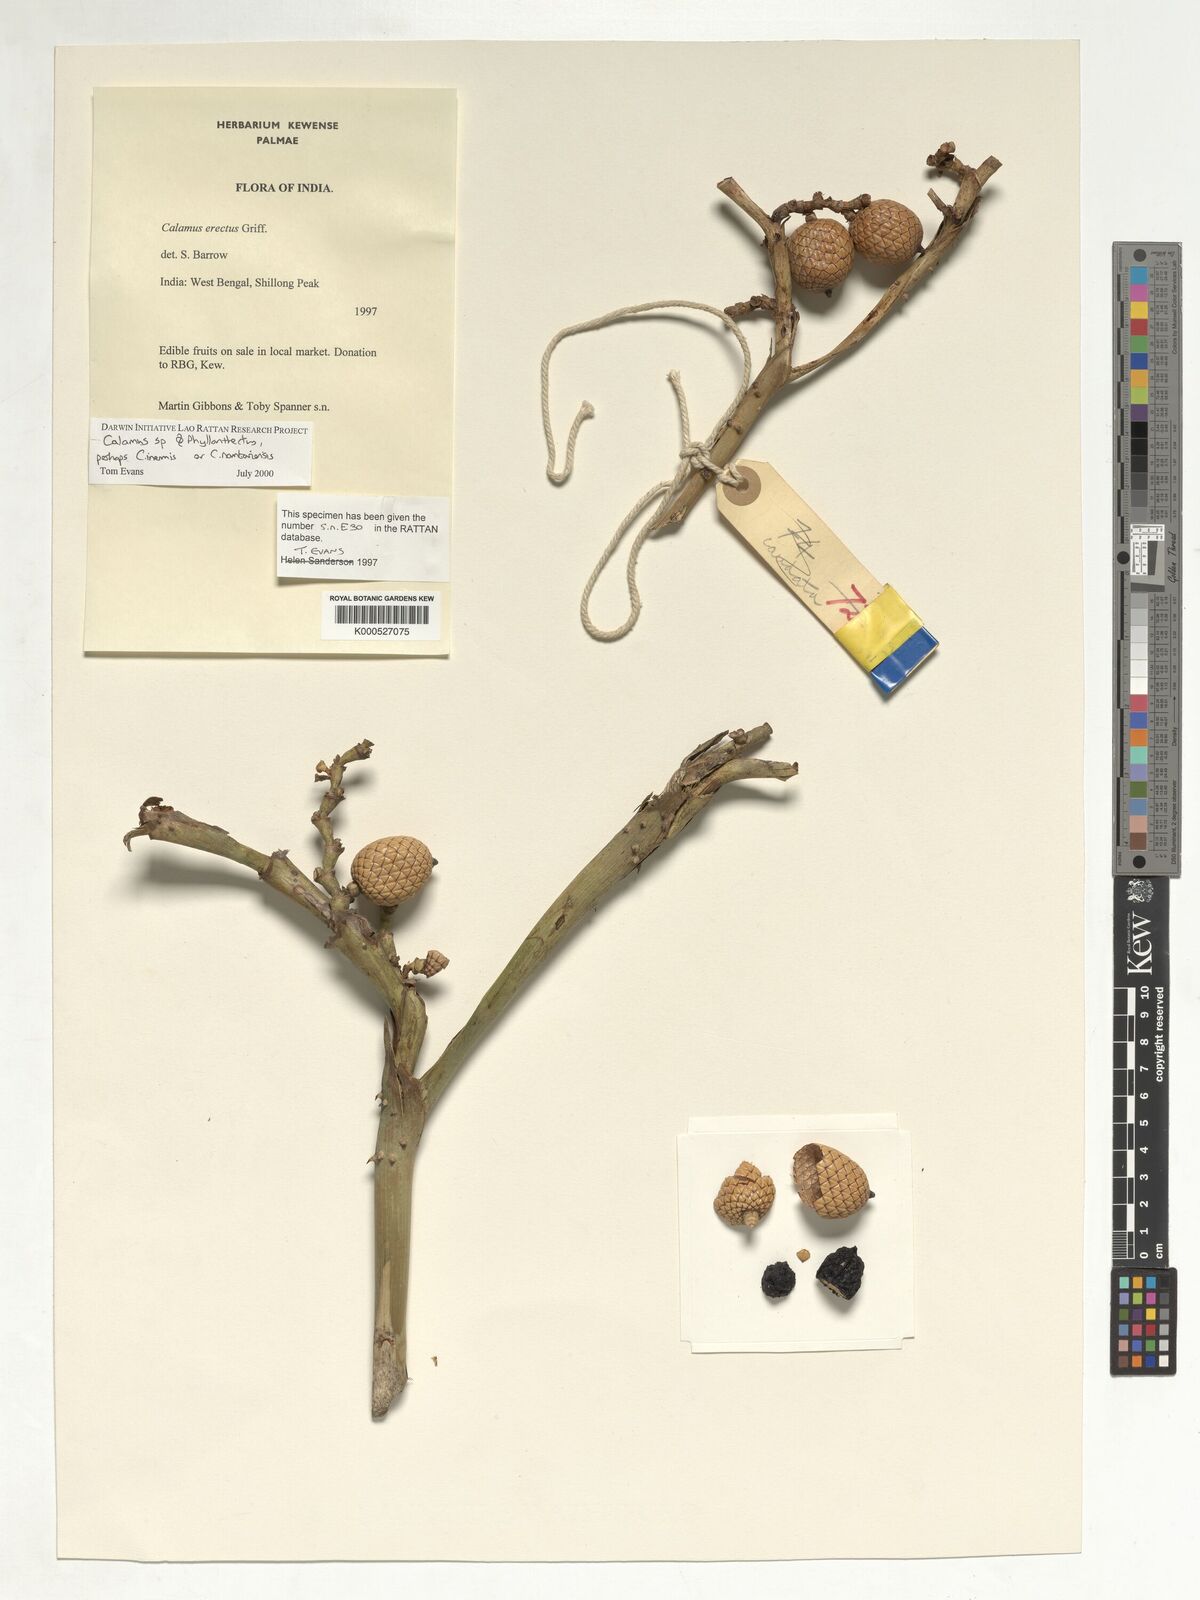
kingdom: Plantae
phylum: Tracheophyta
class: Liliopsida
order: Arecales
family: Arecaceae
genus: Calamus
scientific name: Calamus
